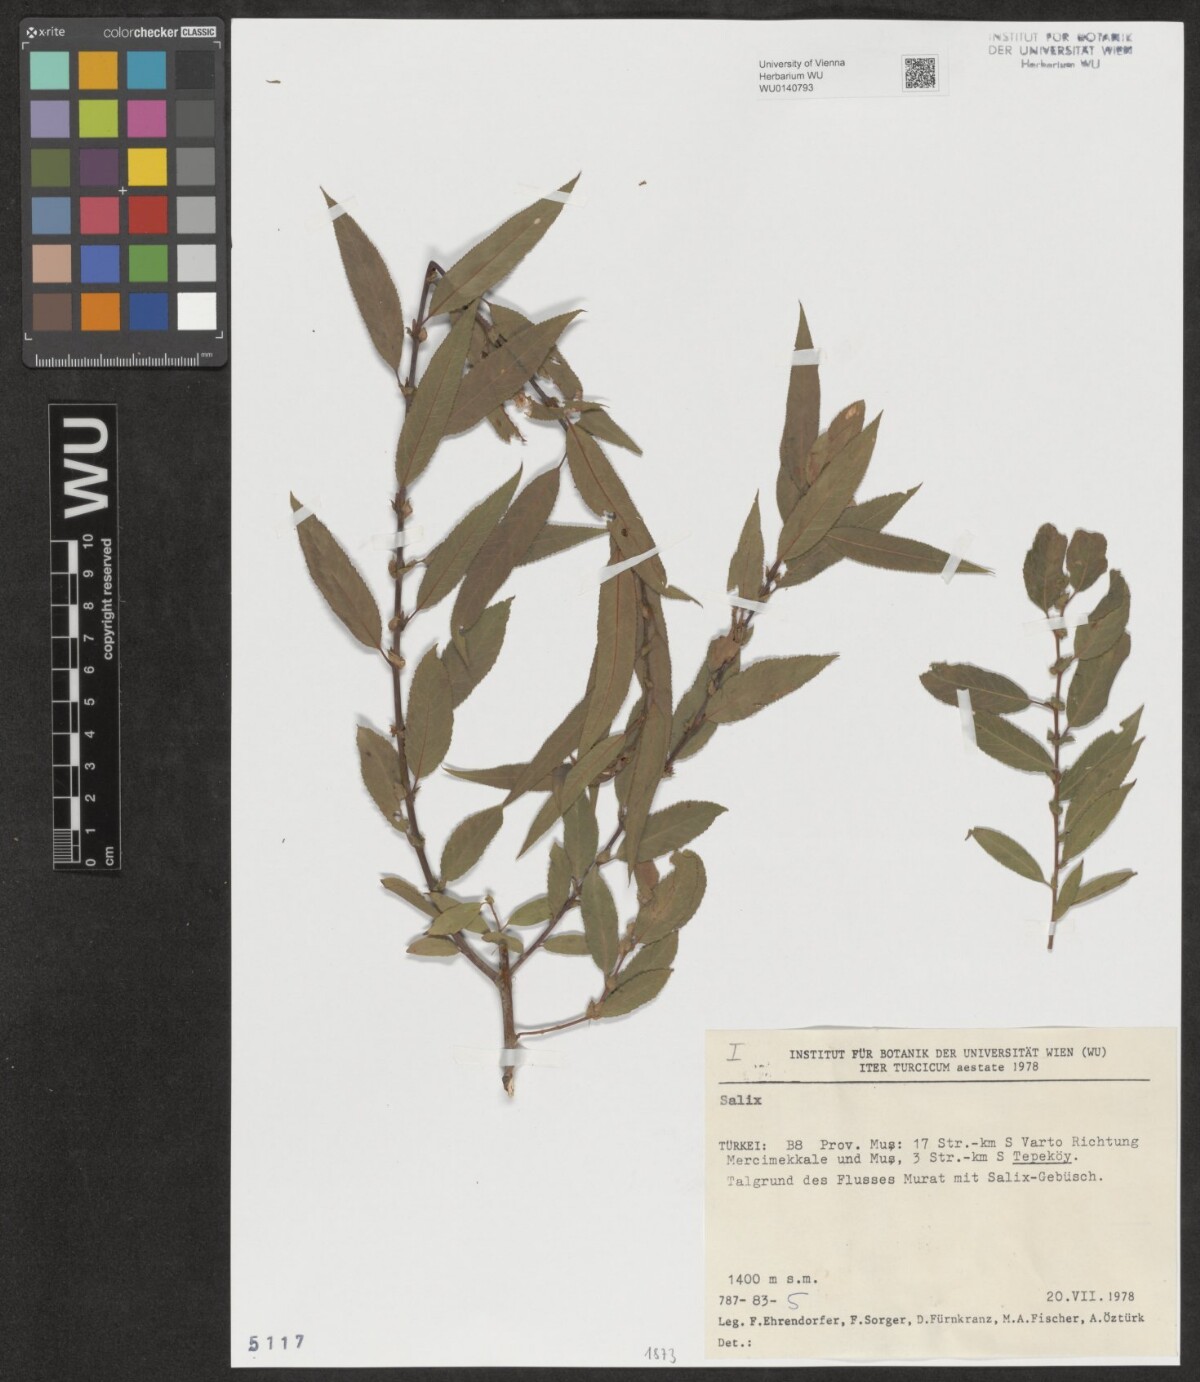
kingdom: Plantae
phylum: Tracheophyta
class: Magnoliopsida
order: Malpighiales
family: Salicaceae
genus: Salix
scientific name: Salix
